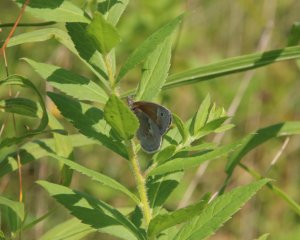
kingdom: Animalia
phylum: Arthropoda
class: Insecta
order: Lepidoptera
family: Nymphalidae
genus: Coenonympha
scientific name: Coenonympha tullia
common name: Large Heath
